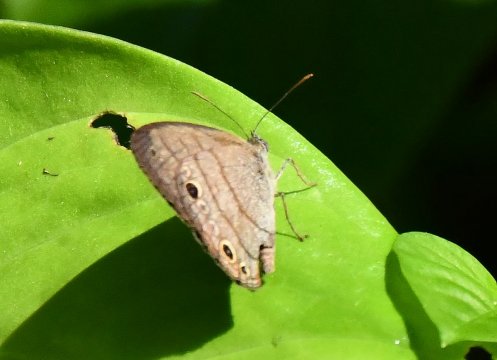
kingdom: Animalia
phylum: Arthropoda
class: Insecta
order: Lepidoptera
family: Nymphalidae
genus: Hermeuptychia
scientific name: Hermeuptychia hermes
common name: Carolina Satyr
